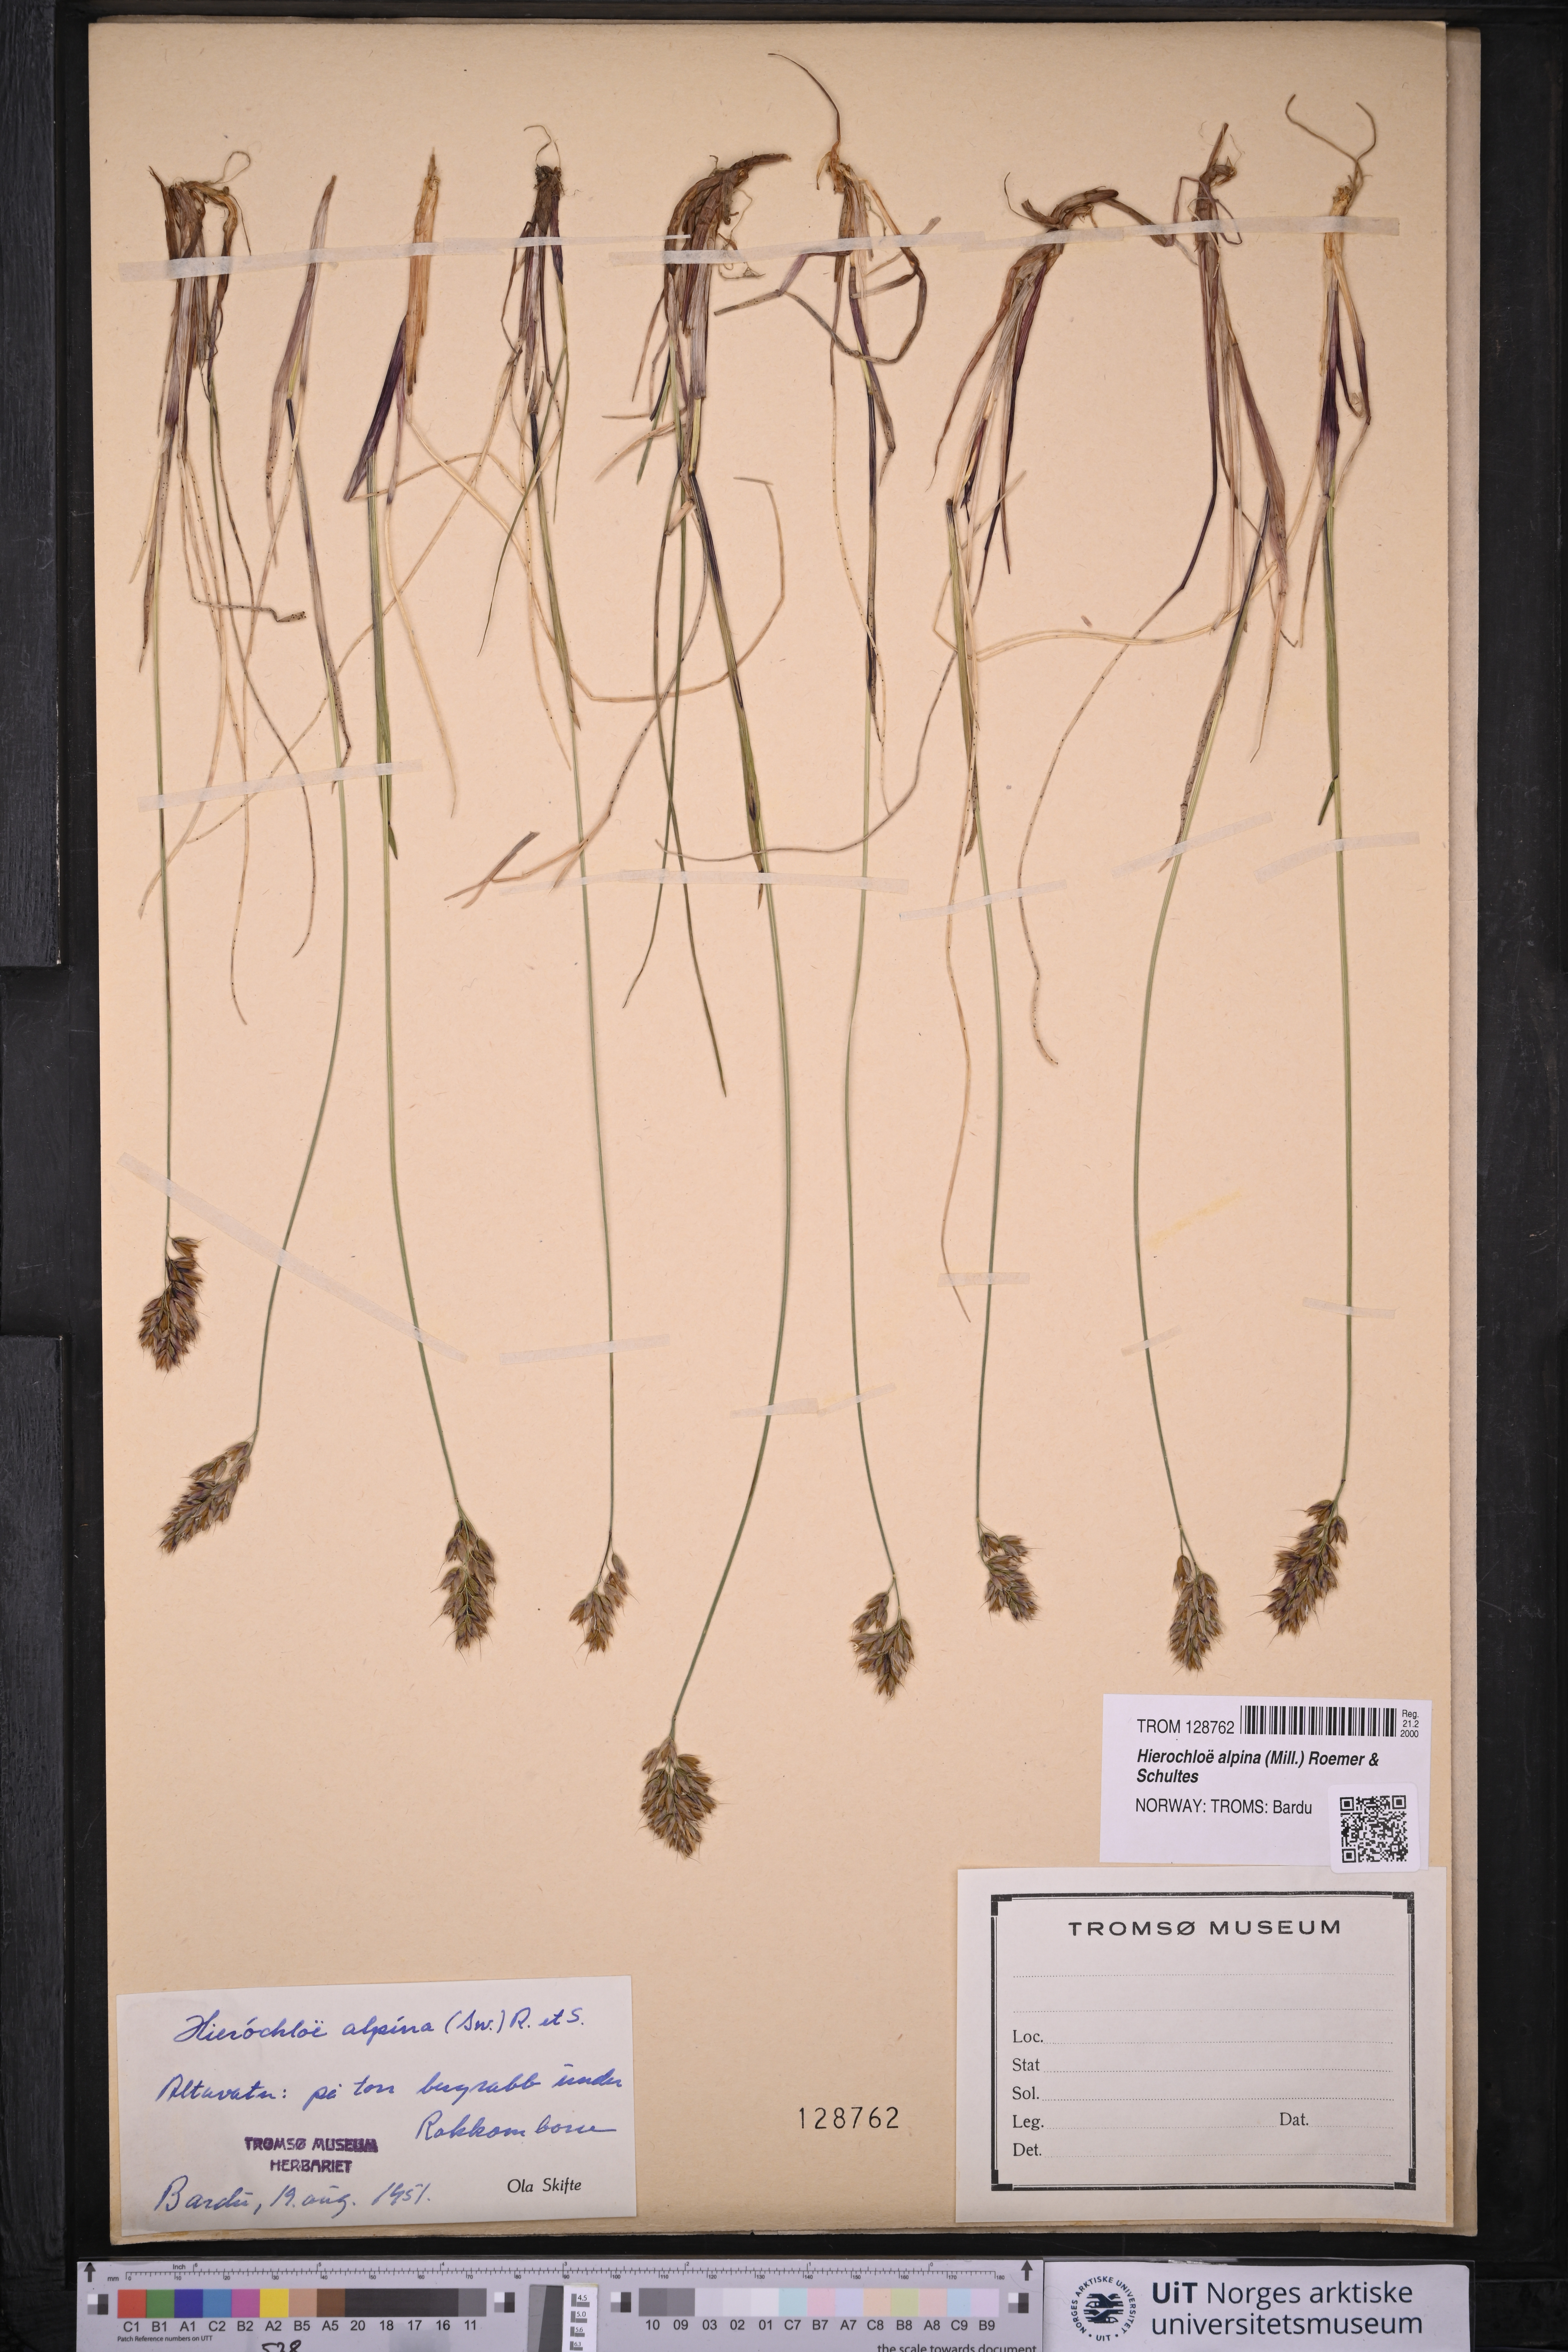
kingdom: Plantae
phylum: Tracheophyta
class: Liliopsida
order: Poales
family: Poaceae
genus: Anthoxanthum
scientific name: Anthoxanthum monticola
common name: Alpine sweetgrass
